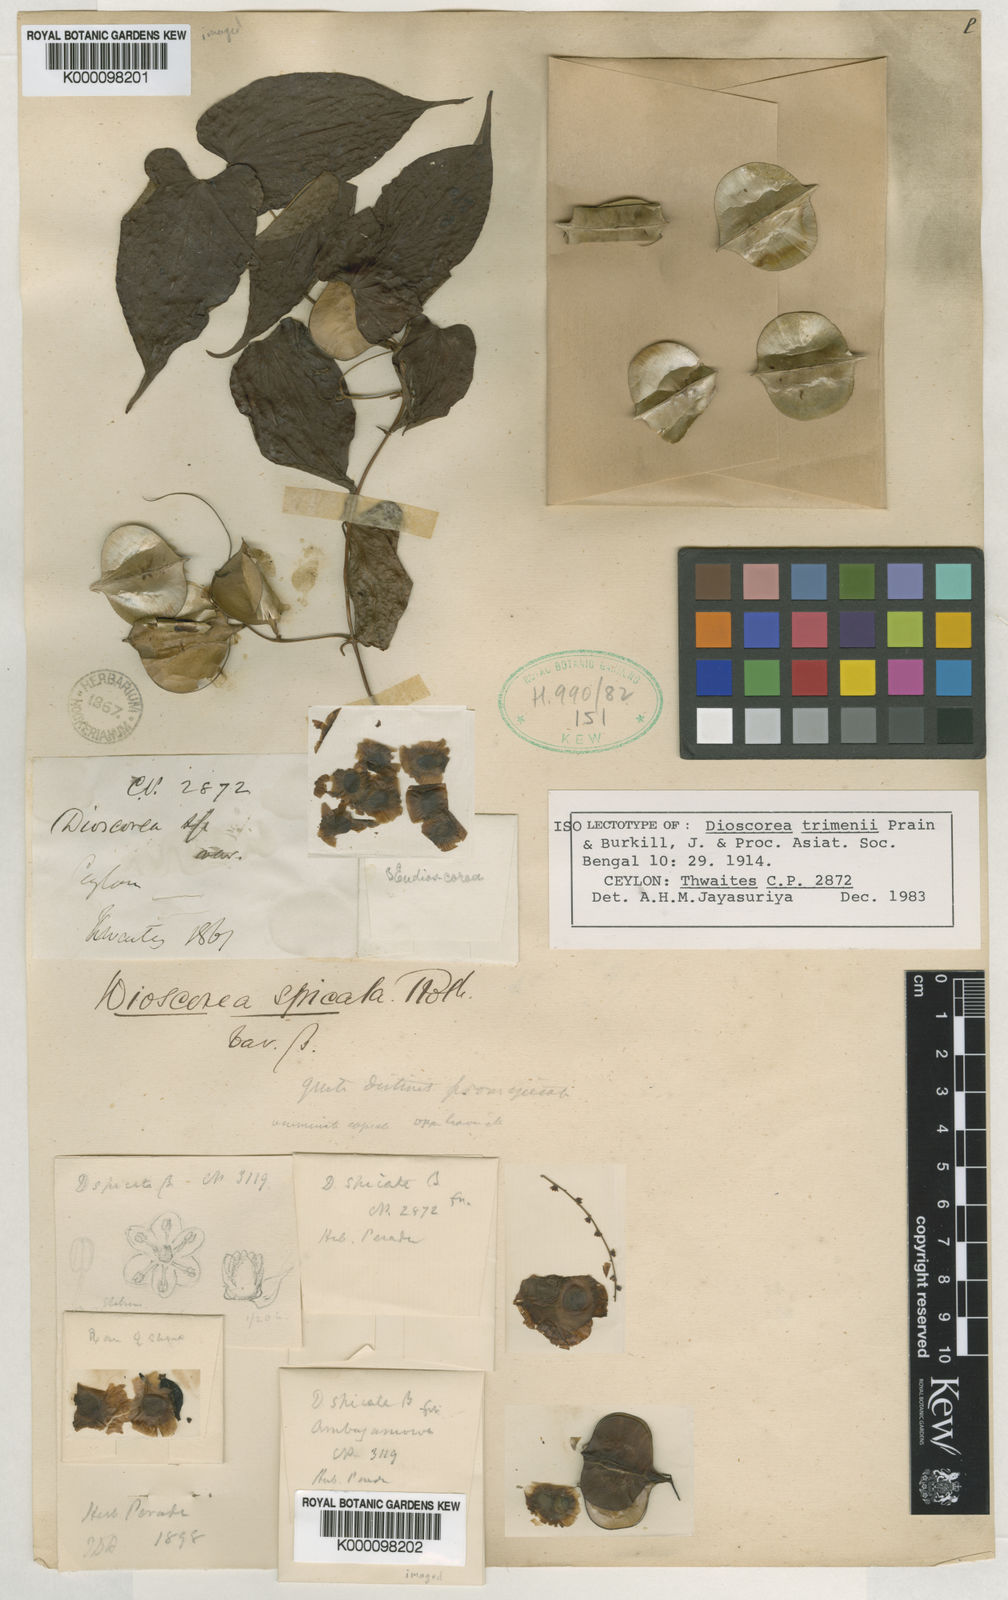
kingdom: Plantae
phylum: Tracheophyta
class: Liliopsida
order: Dioscoreales
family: Dioscoreaceae
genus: Dioscorea
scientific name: Dioscorea trimenii
